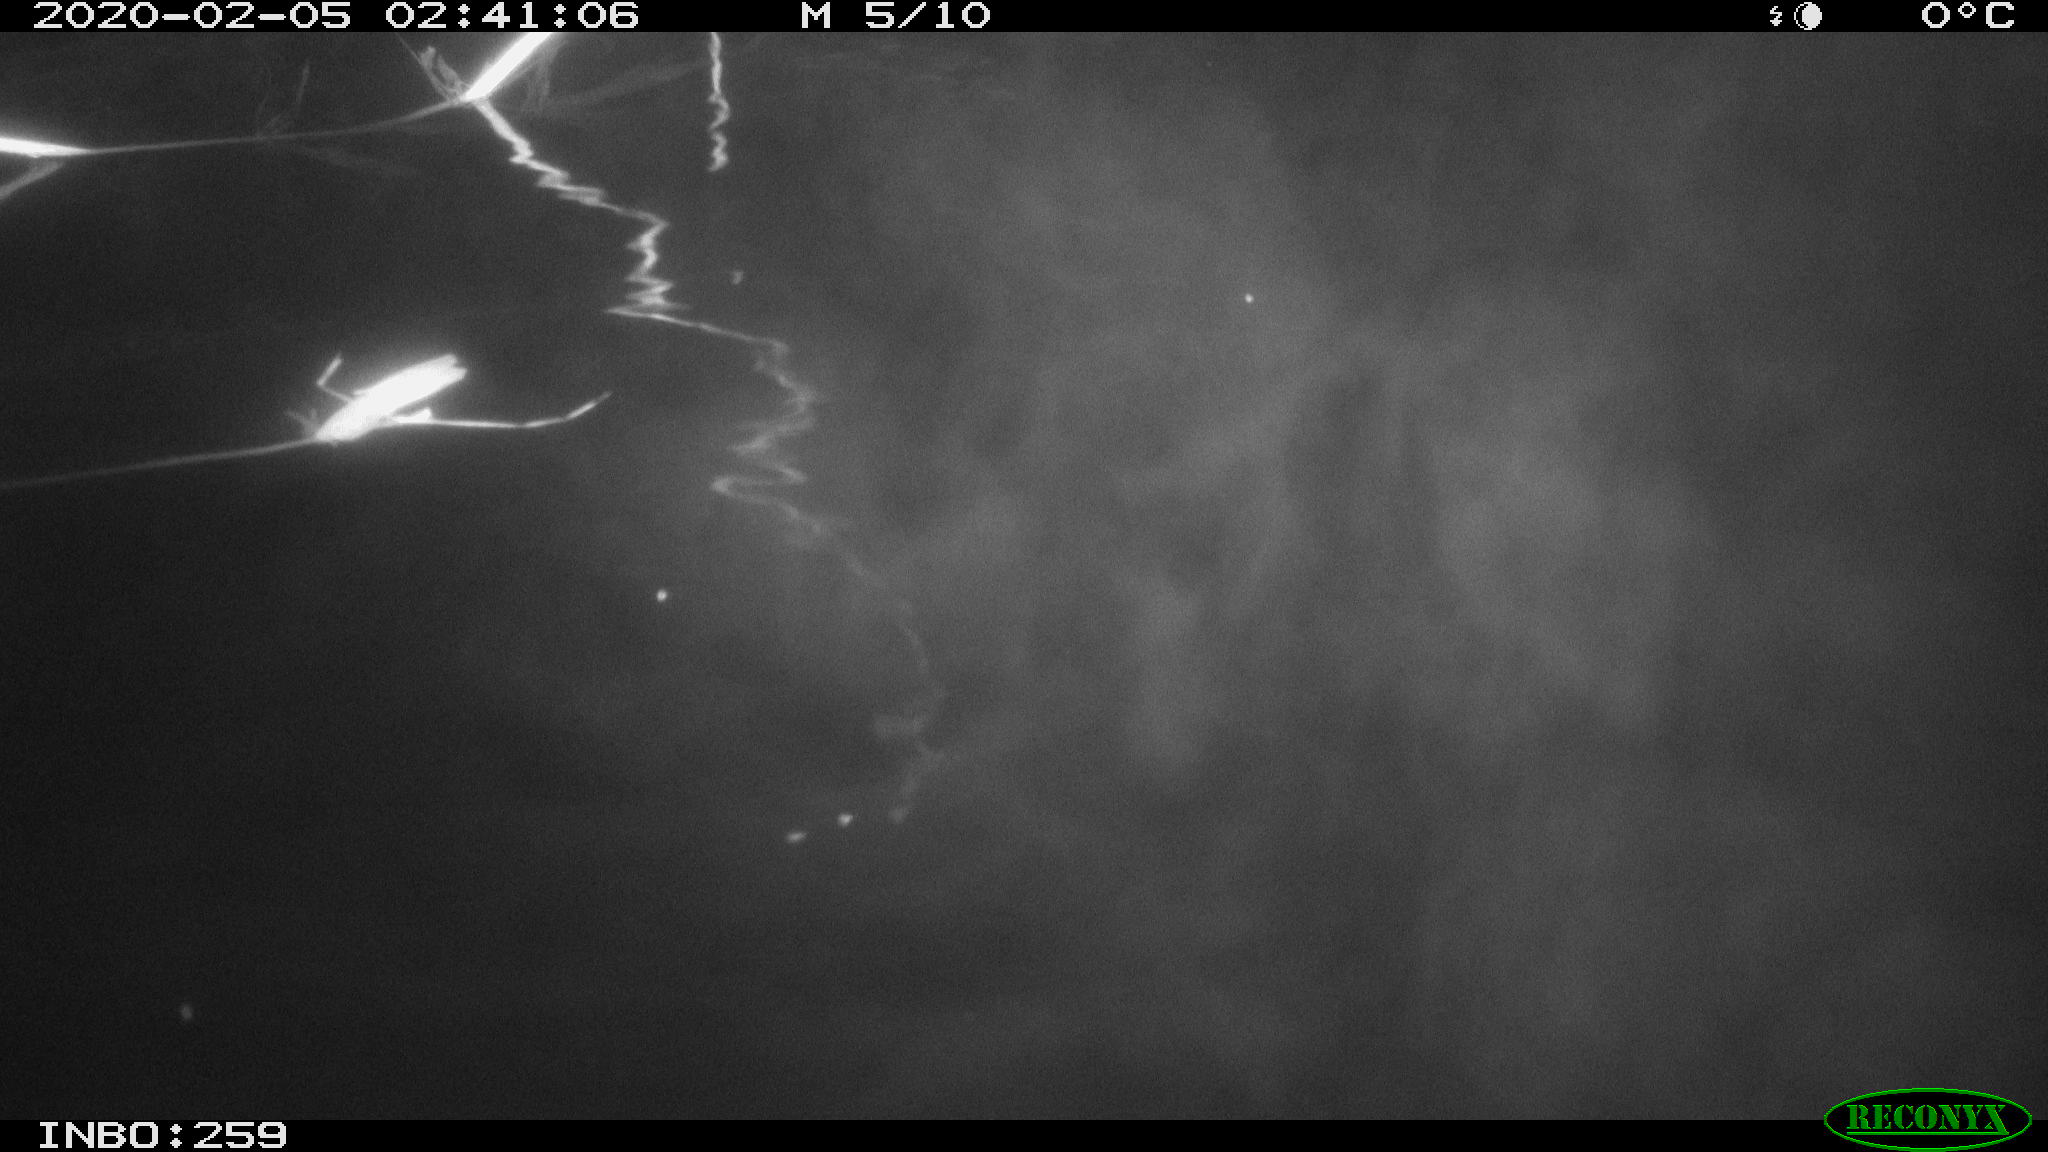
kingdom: Animalia
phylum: Chordata
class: Mammalia
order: Rodentia
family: Cricetidae
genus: Ondatra
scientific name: Ondatra zibethicus
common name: Muskrat
